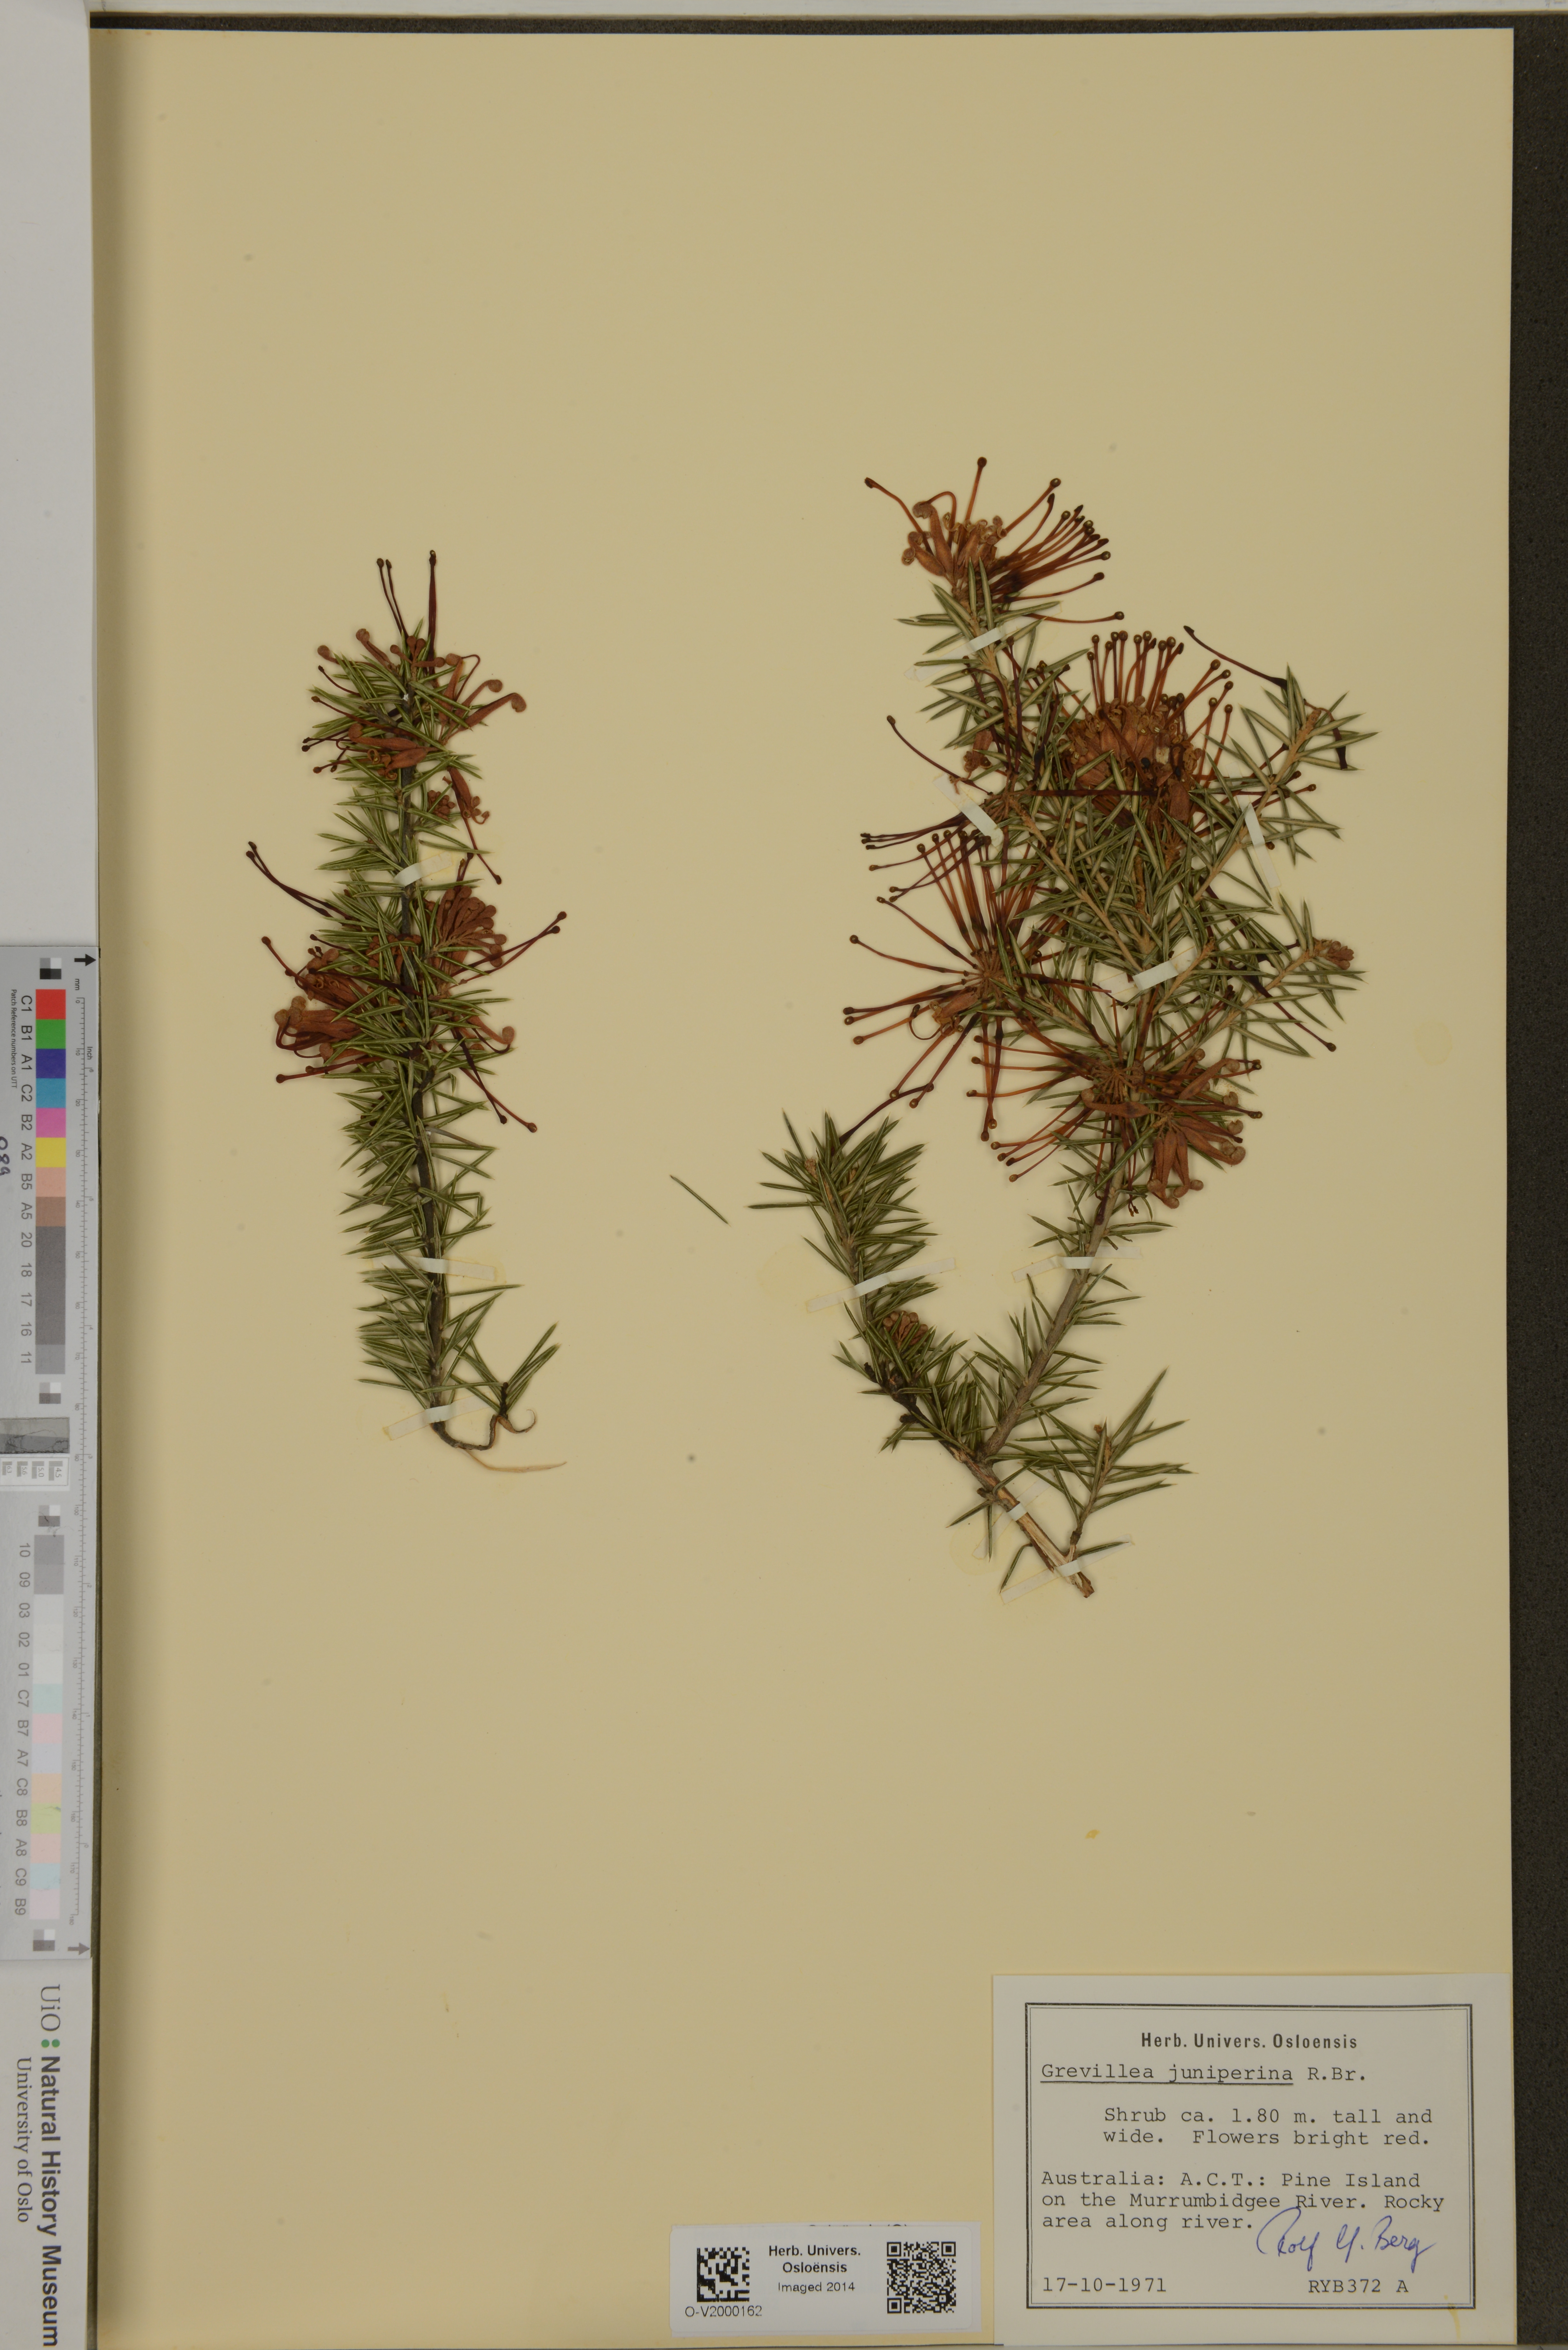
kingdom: Plantae
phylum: Tracheophyta
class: Magnoliopsida
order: Proteales
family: Proteaceae
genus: Grevillea
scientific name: Grevillea juniperina
